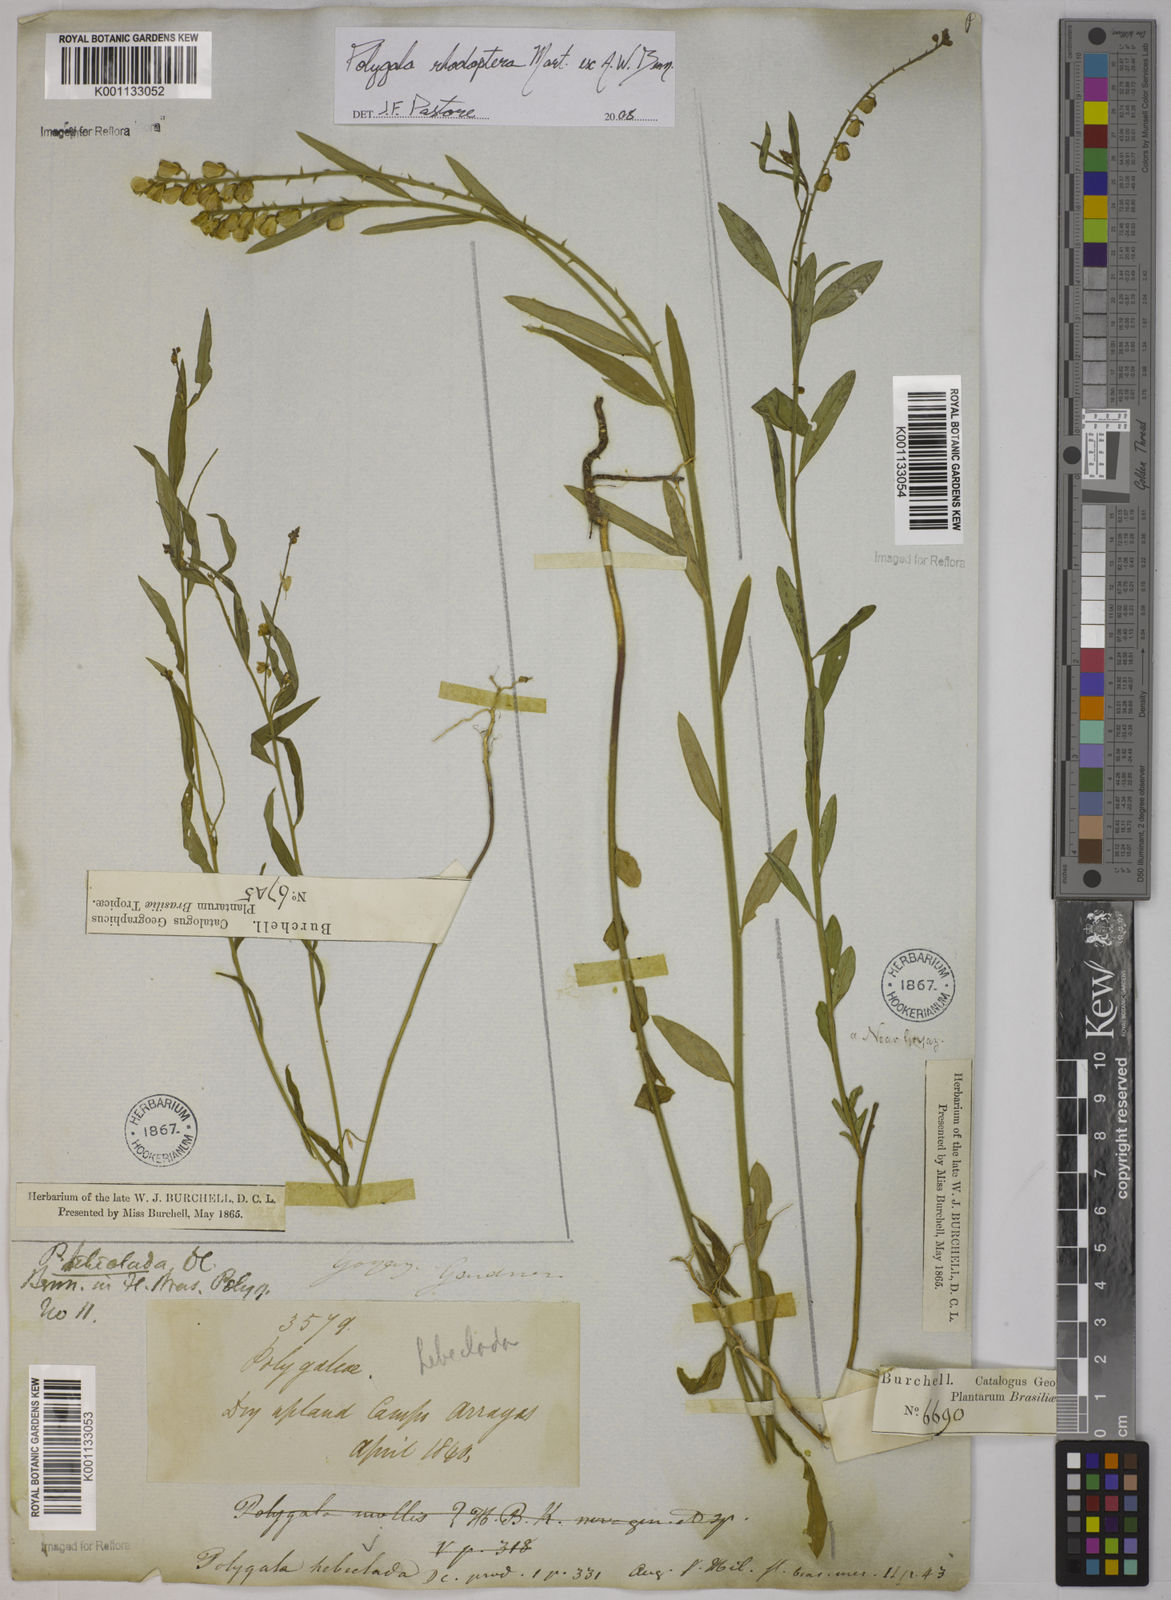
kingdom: Plantae
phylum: Tracheophyta
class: Magnoliopsida
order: Fabales
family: Polygalaceae
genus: Asemeia
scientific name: Asemeia rhodoptera
